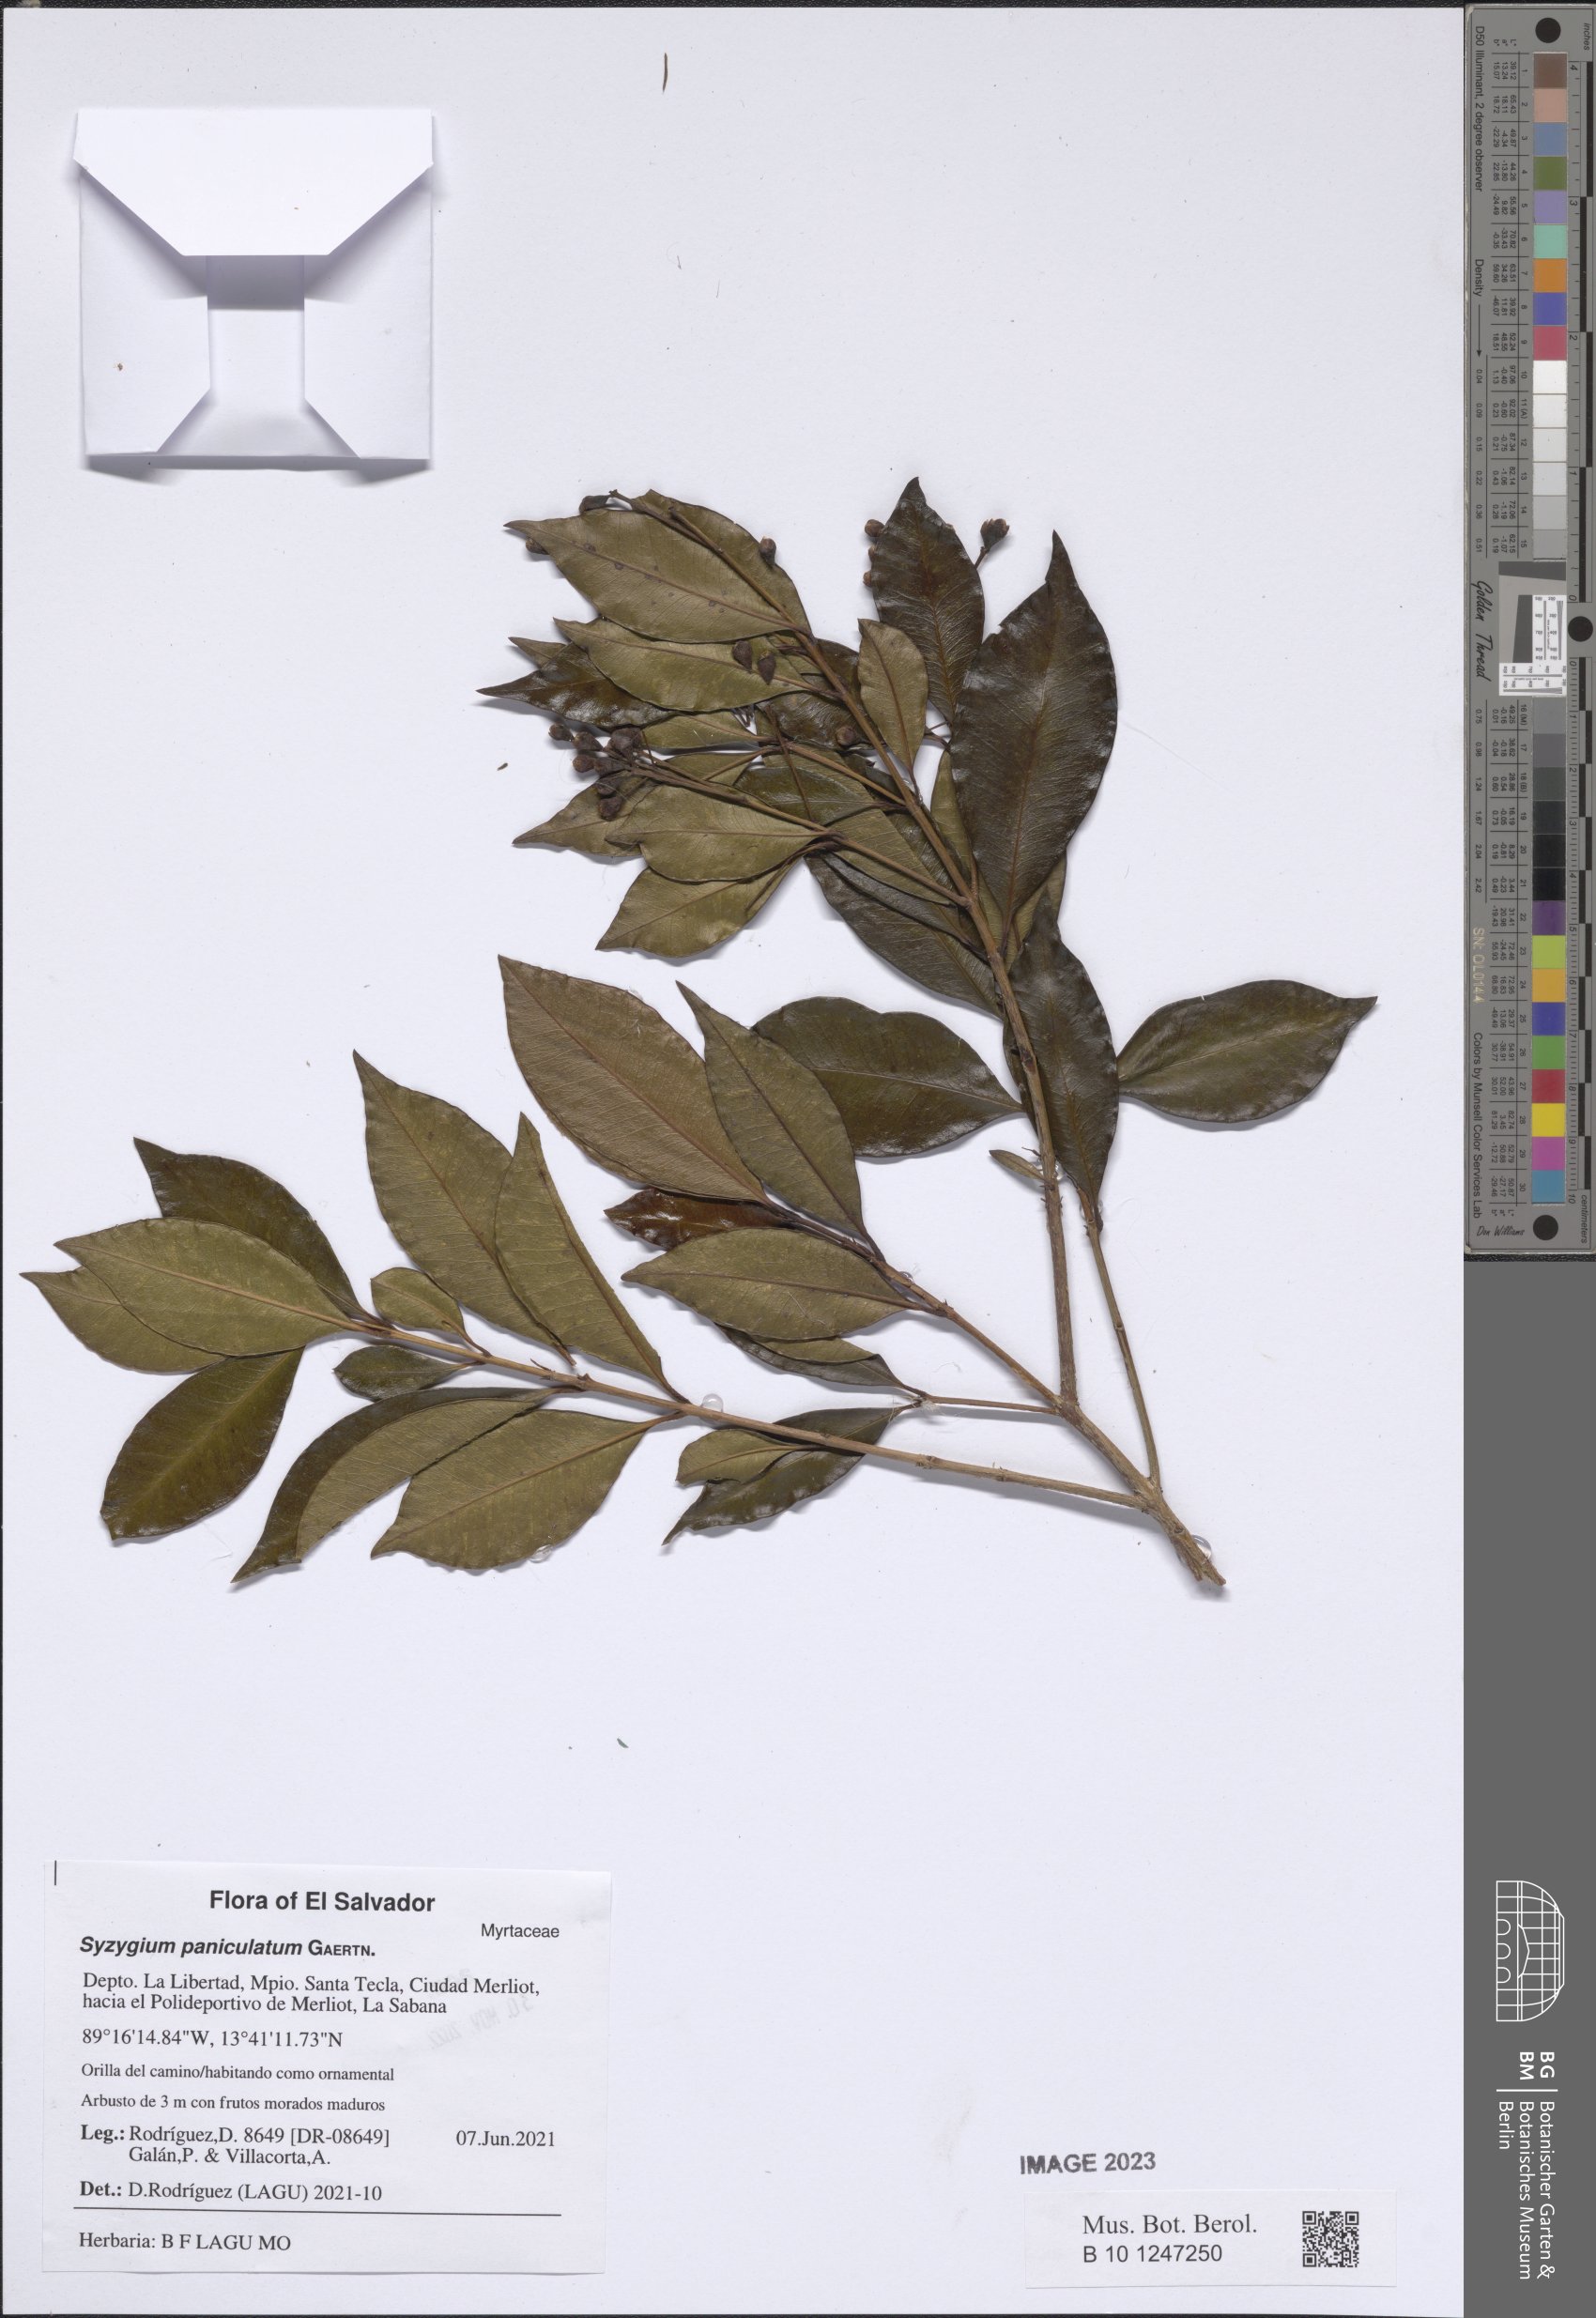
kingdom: Plantae
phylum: Tracheophyta
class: Magnoliopsida
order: Myrtales
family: Myrtaceae
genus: Syzygium
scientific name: Syzygium paniculatum
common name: Magenta lilly-pilly
